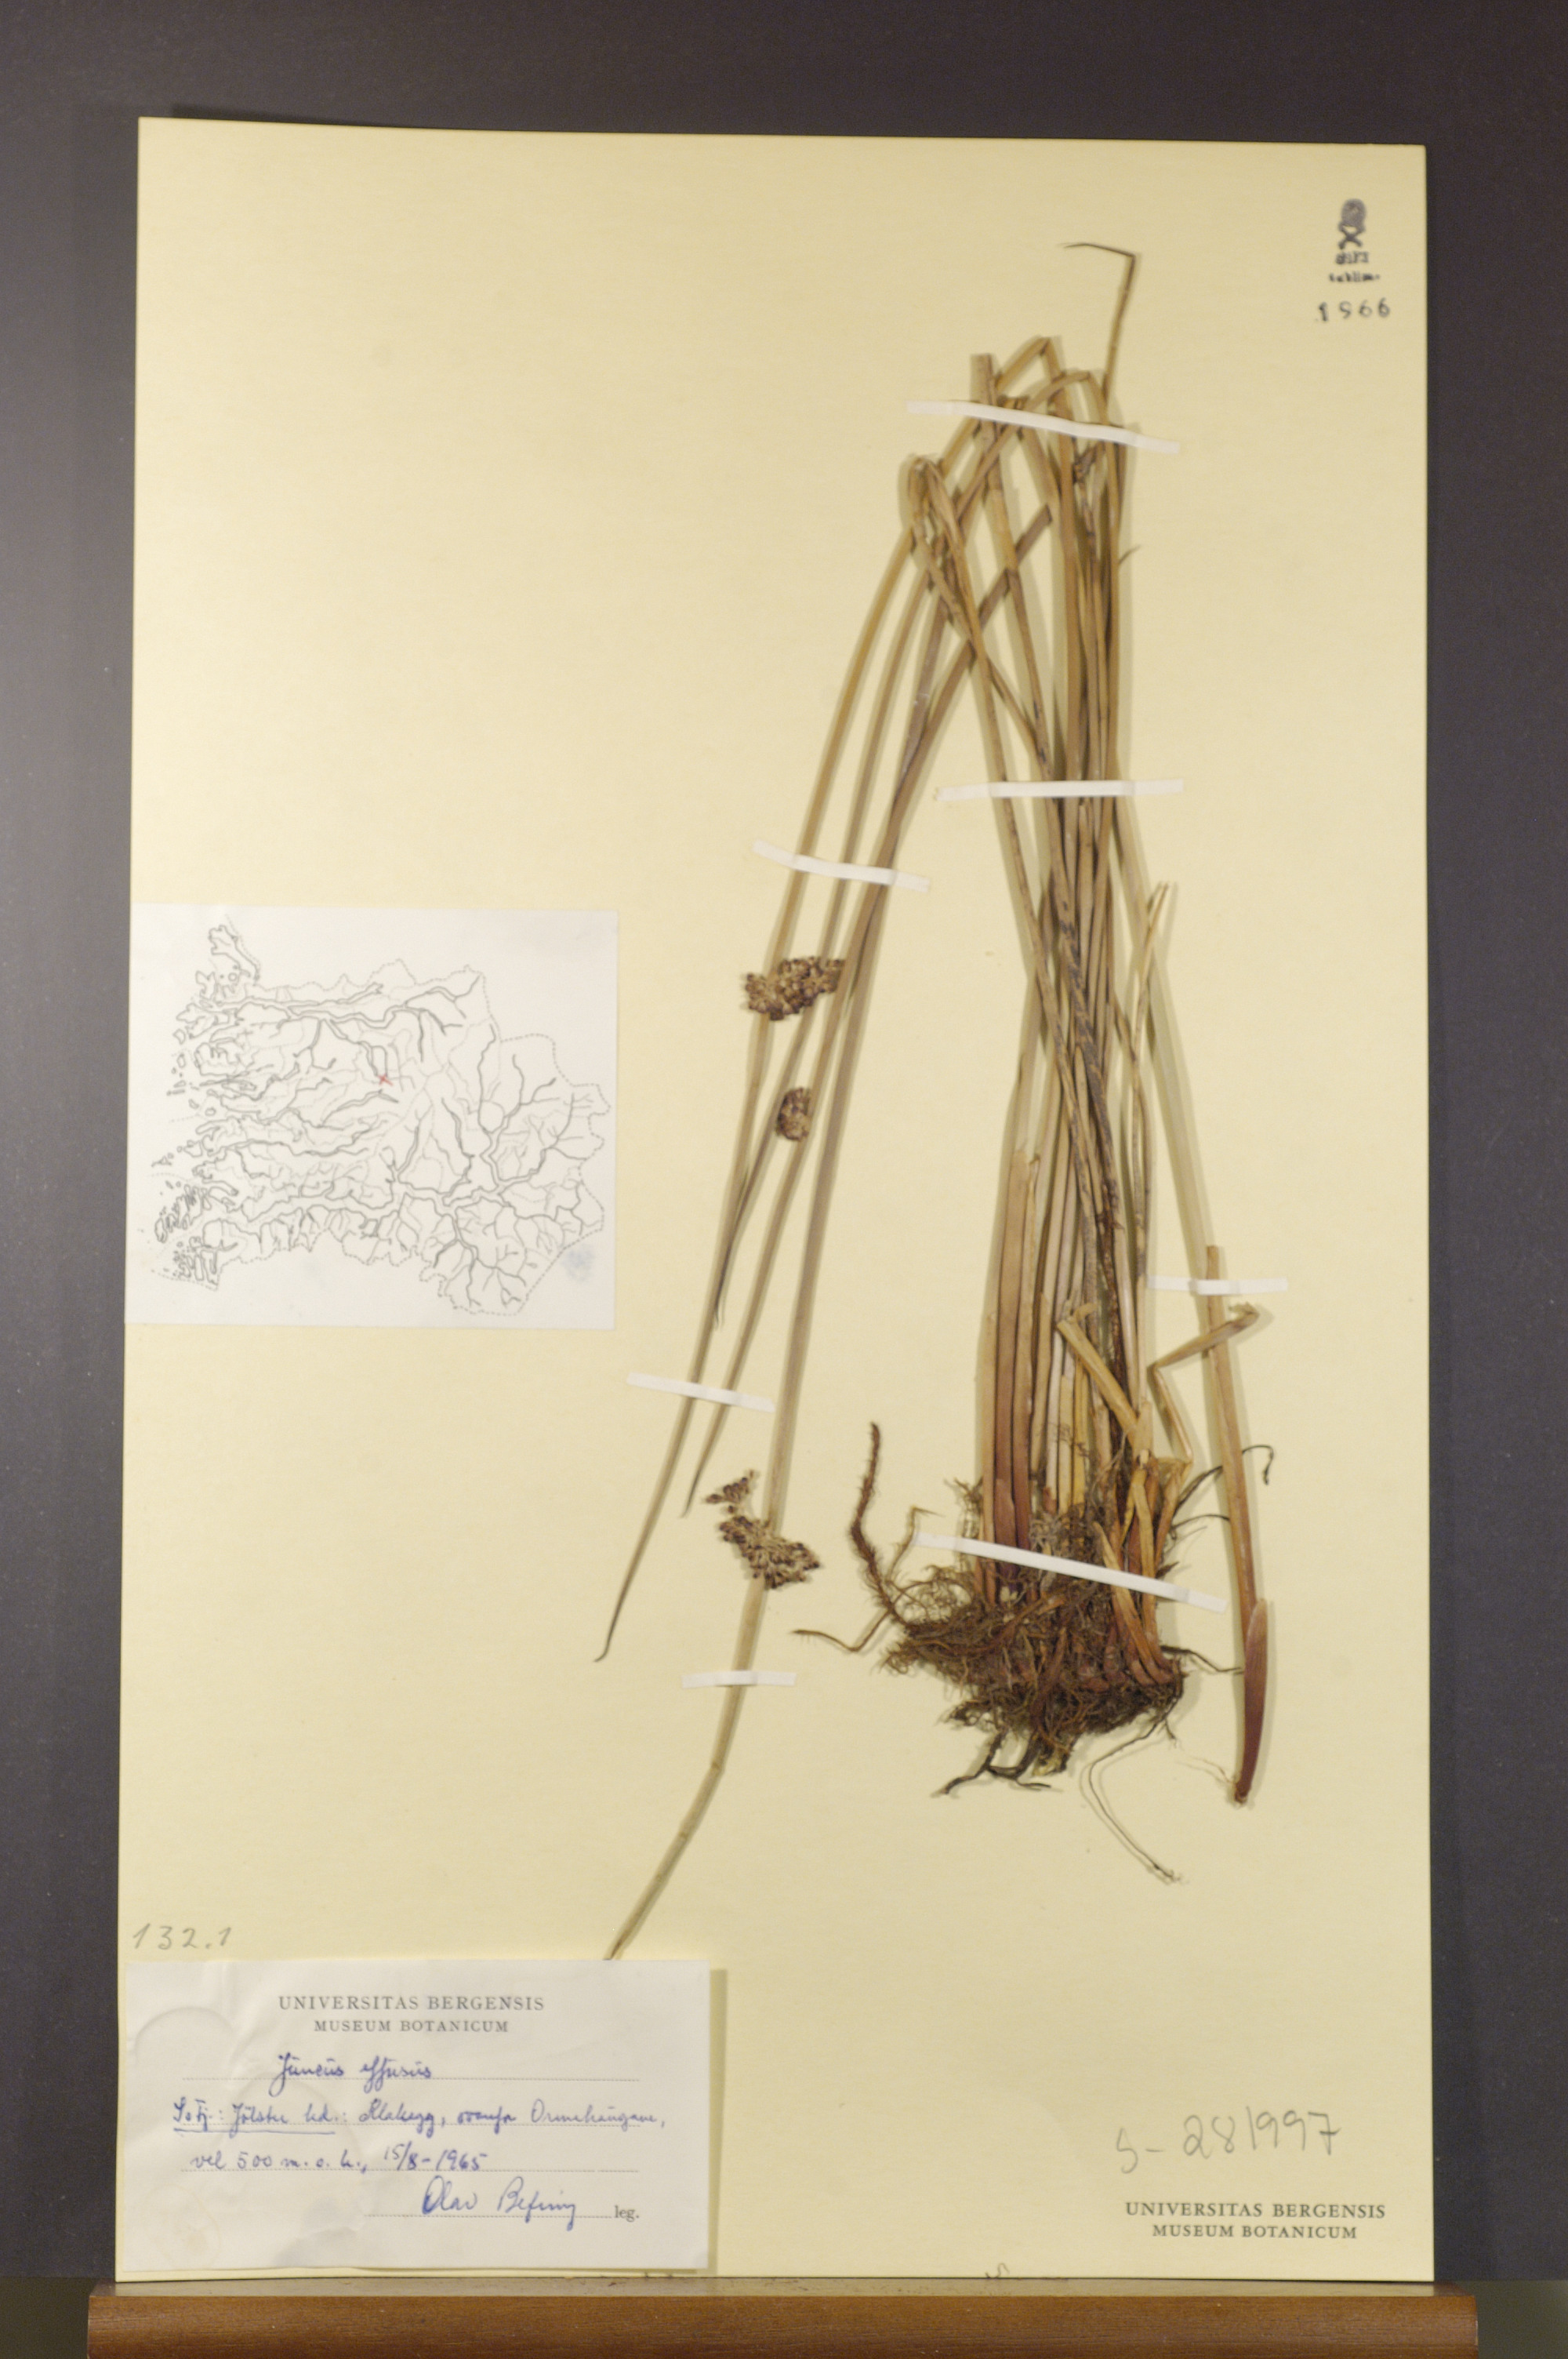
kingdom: Plantae
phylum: Tracheophyta
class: Liliopsida
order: Poales
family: Juncaceae
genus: Juncus
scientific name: Juncus effusus
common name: Soft rush
